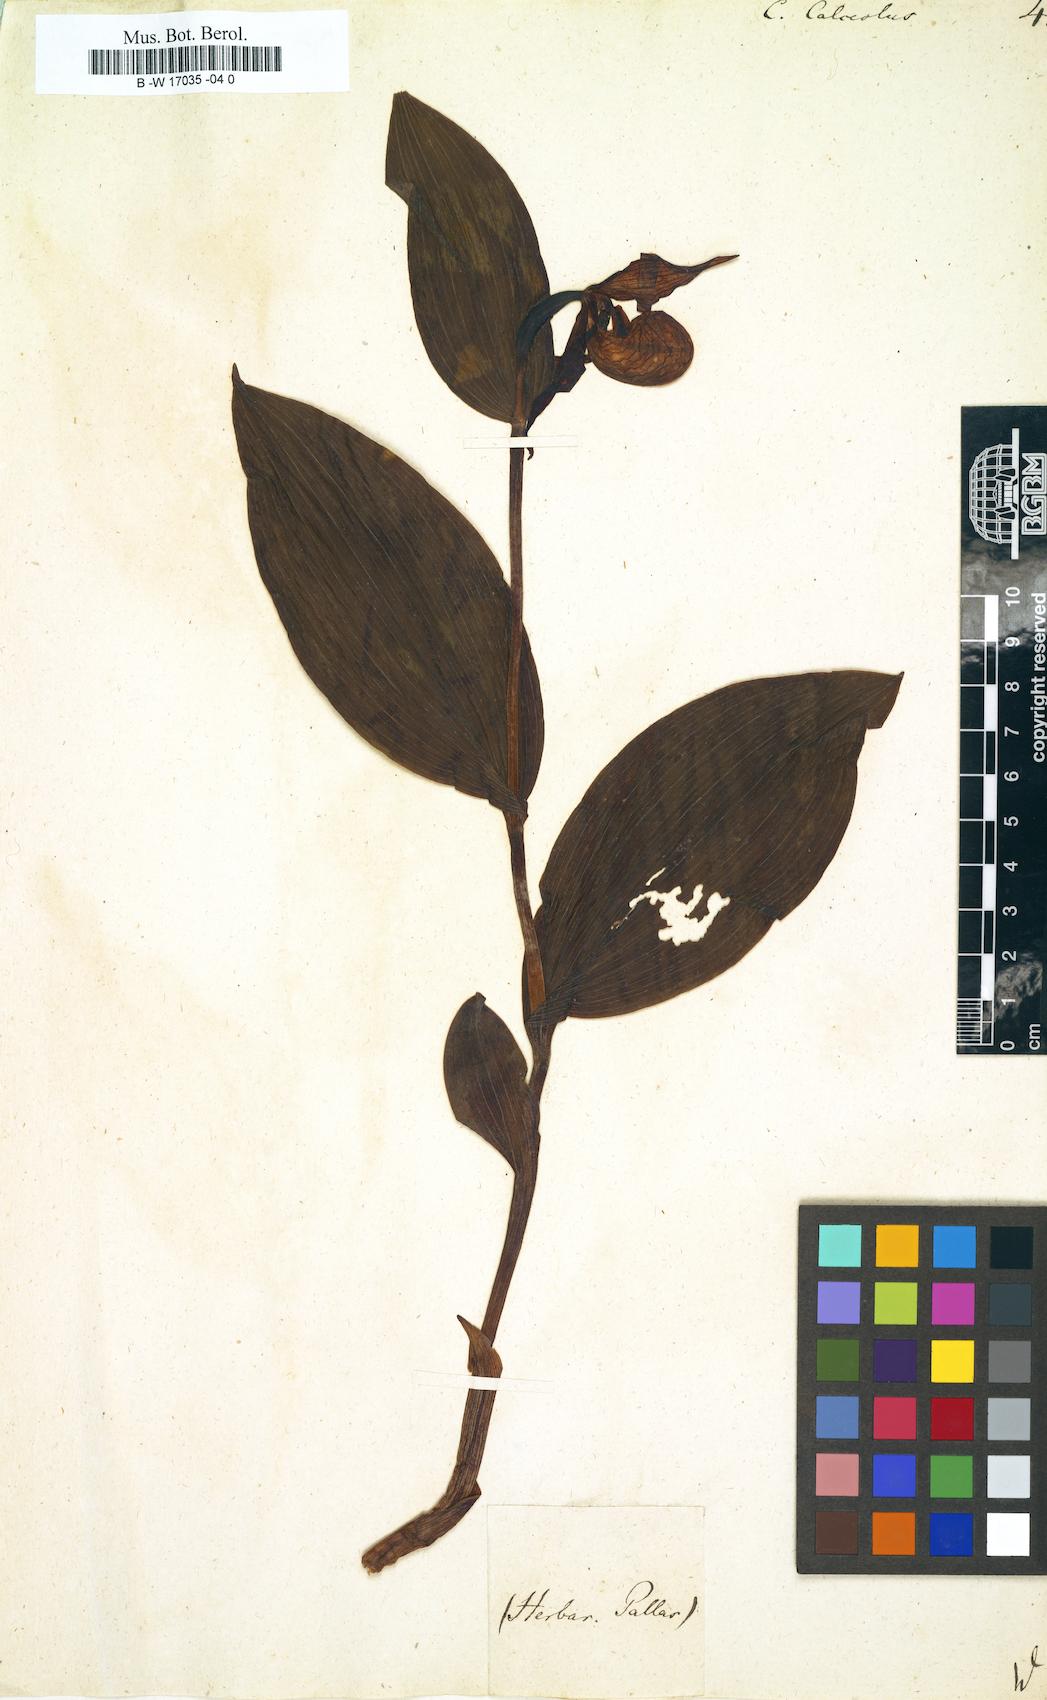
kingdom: Plantae
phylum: Tracheophyta
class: Liliopsida
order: Asparagales
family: Orchidaceae
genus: Cypripedium
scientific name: Cypripedium calceolus
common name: Lady's-slipper
